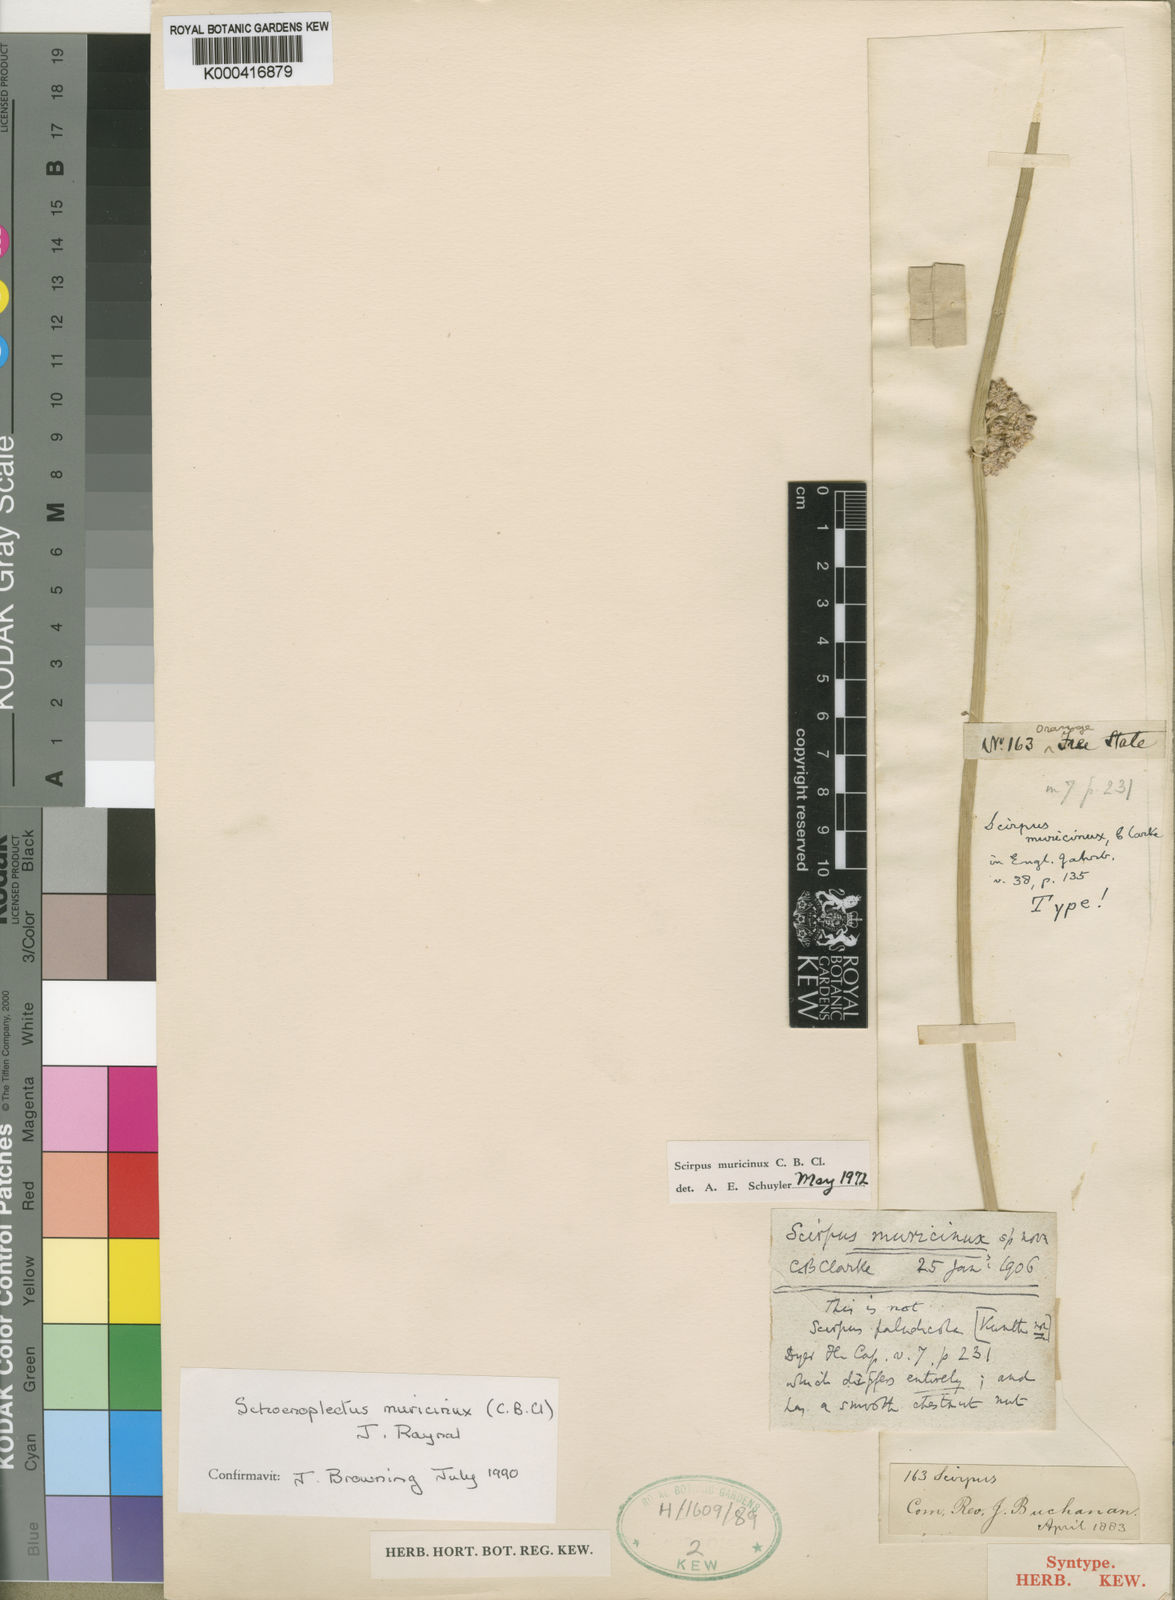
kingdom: Plantae
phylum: Tracheophyta
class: Liliopsida
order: Poales
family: Cyperaceae
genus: Schoenoplectiella
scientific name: Schoenoplectiella muricinux
